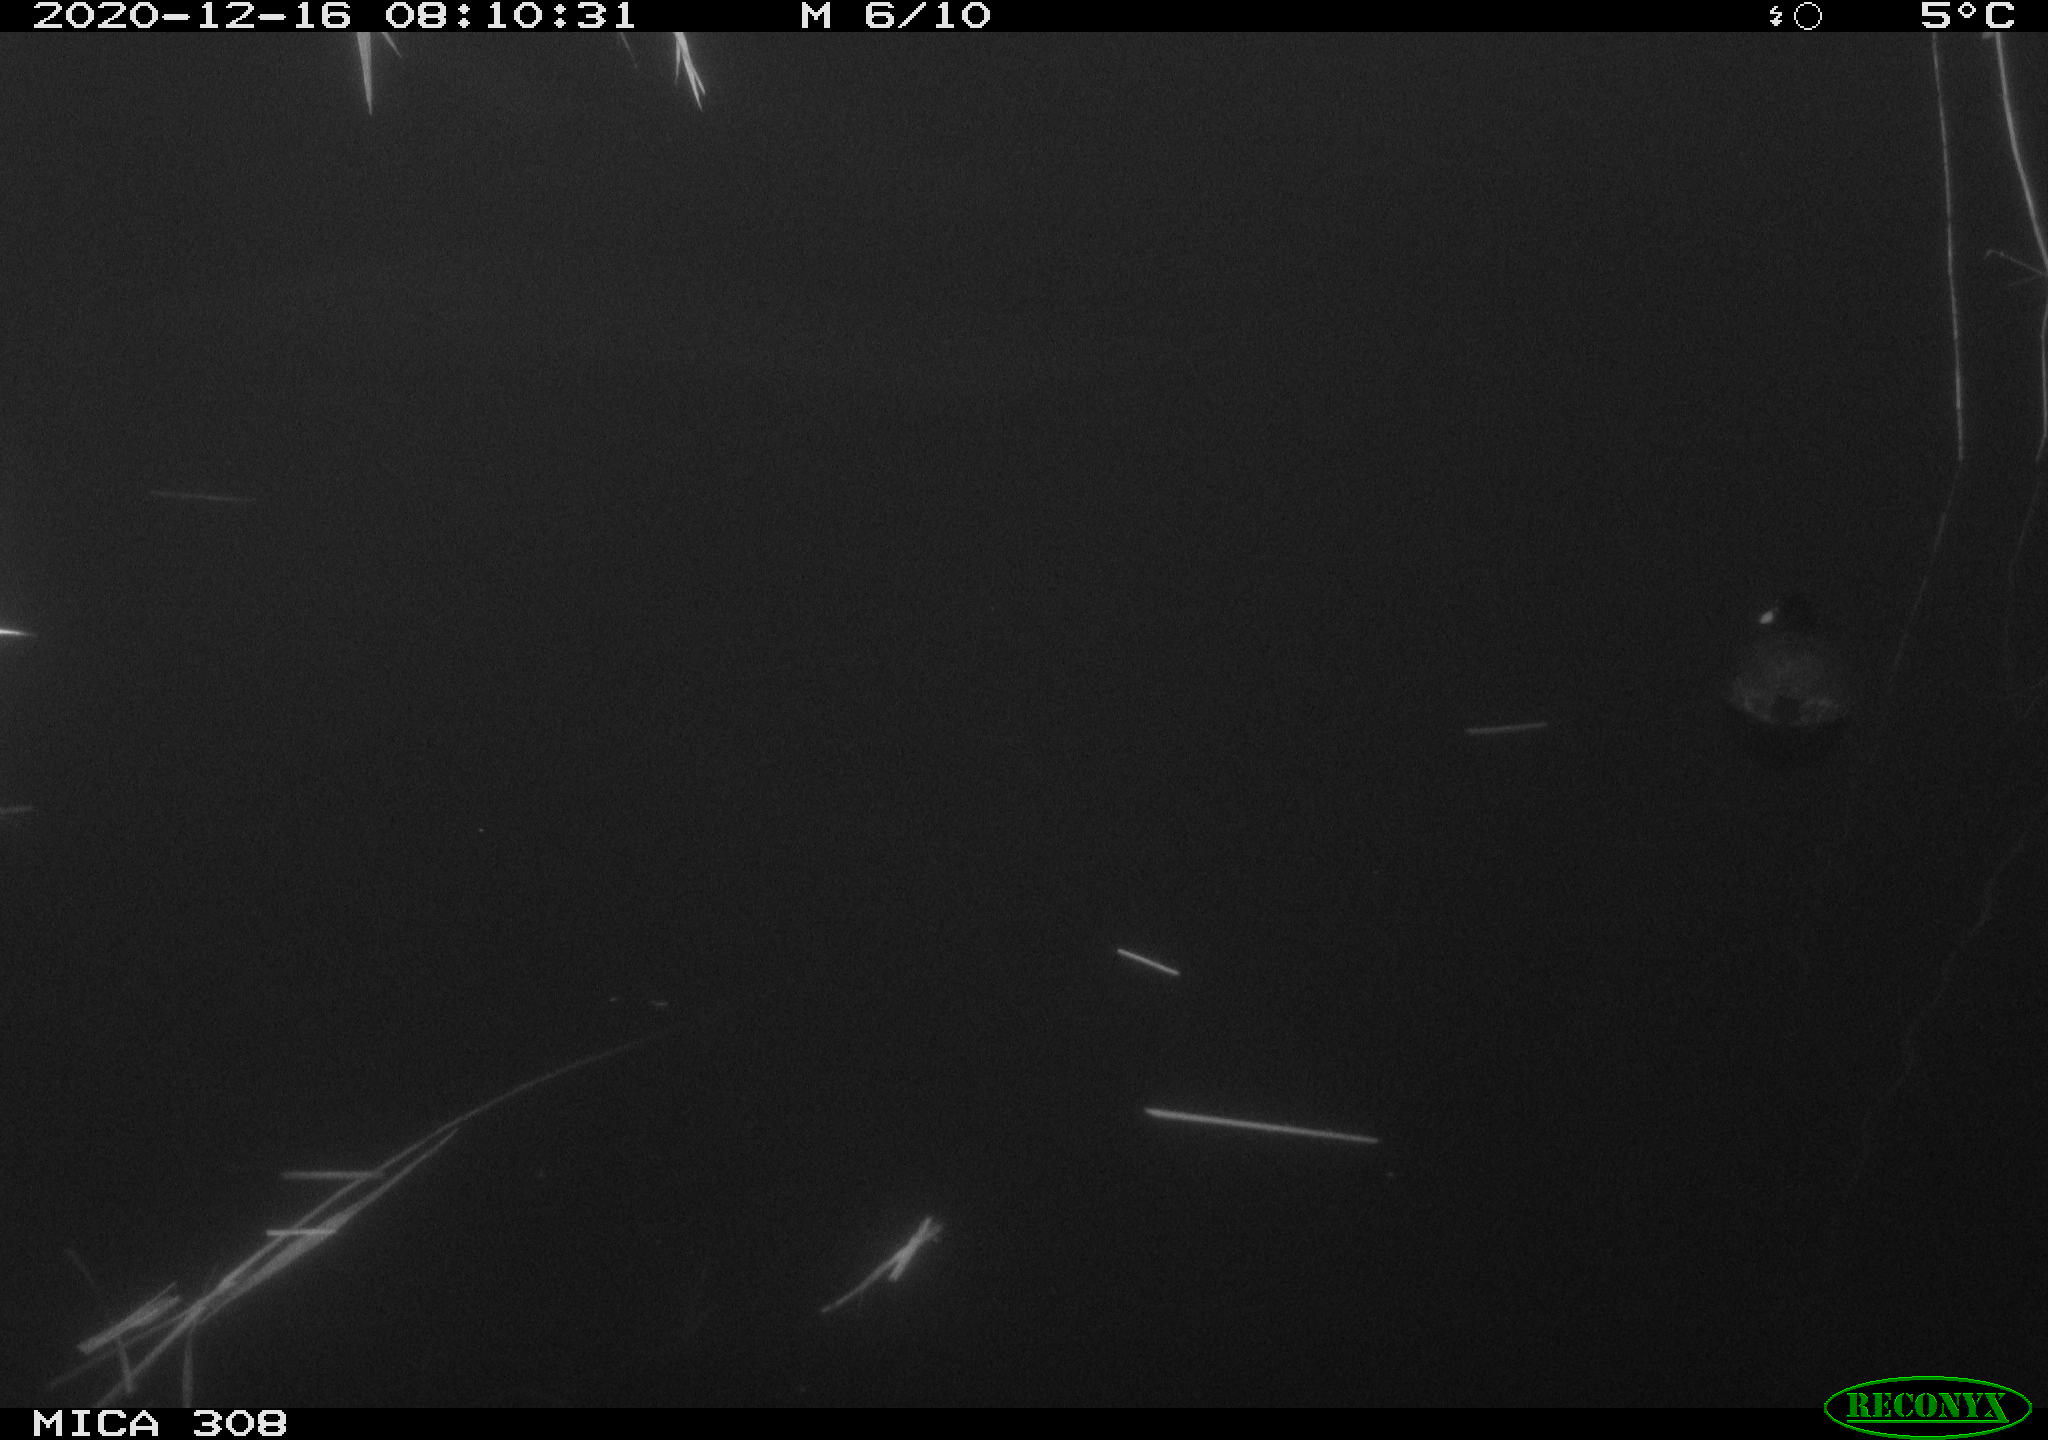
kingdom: Animalia
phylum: Chordata
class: Aves
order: Gruiformes
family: Rallidae
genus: Fulica
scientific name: Fulica atra
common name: Eurasian coot
